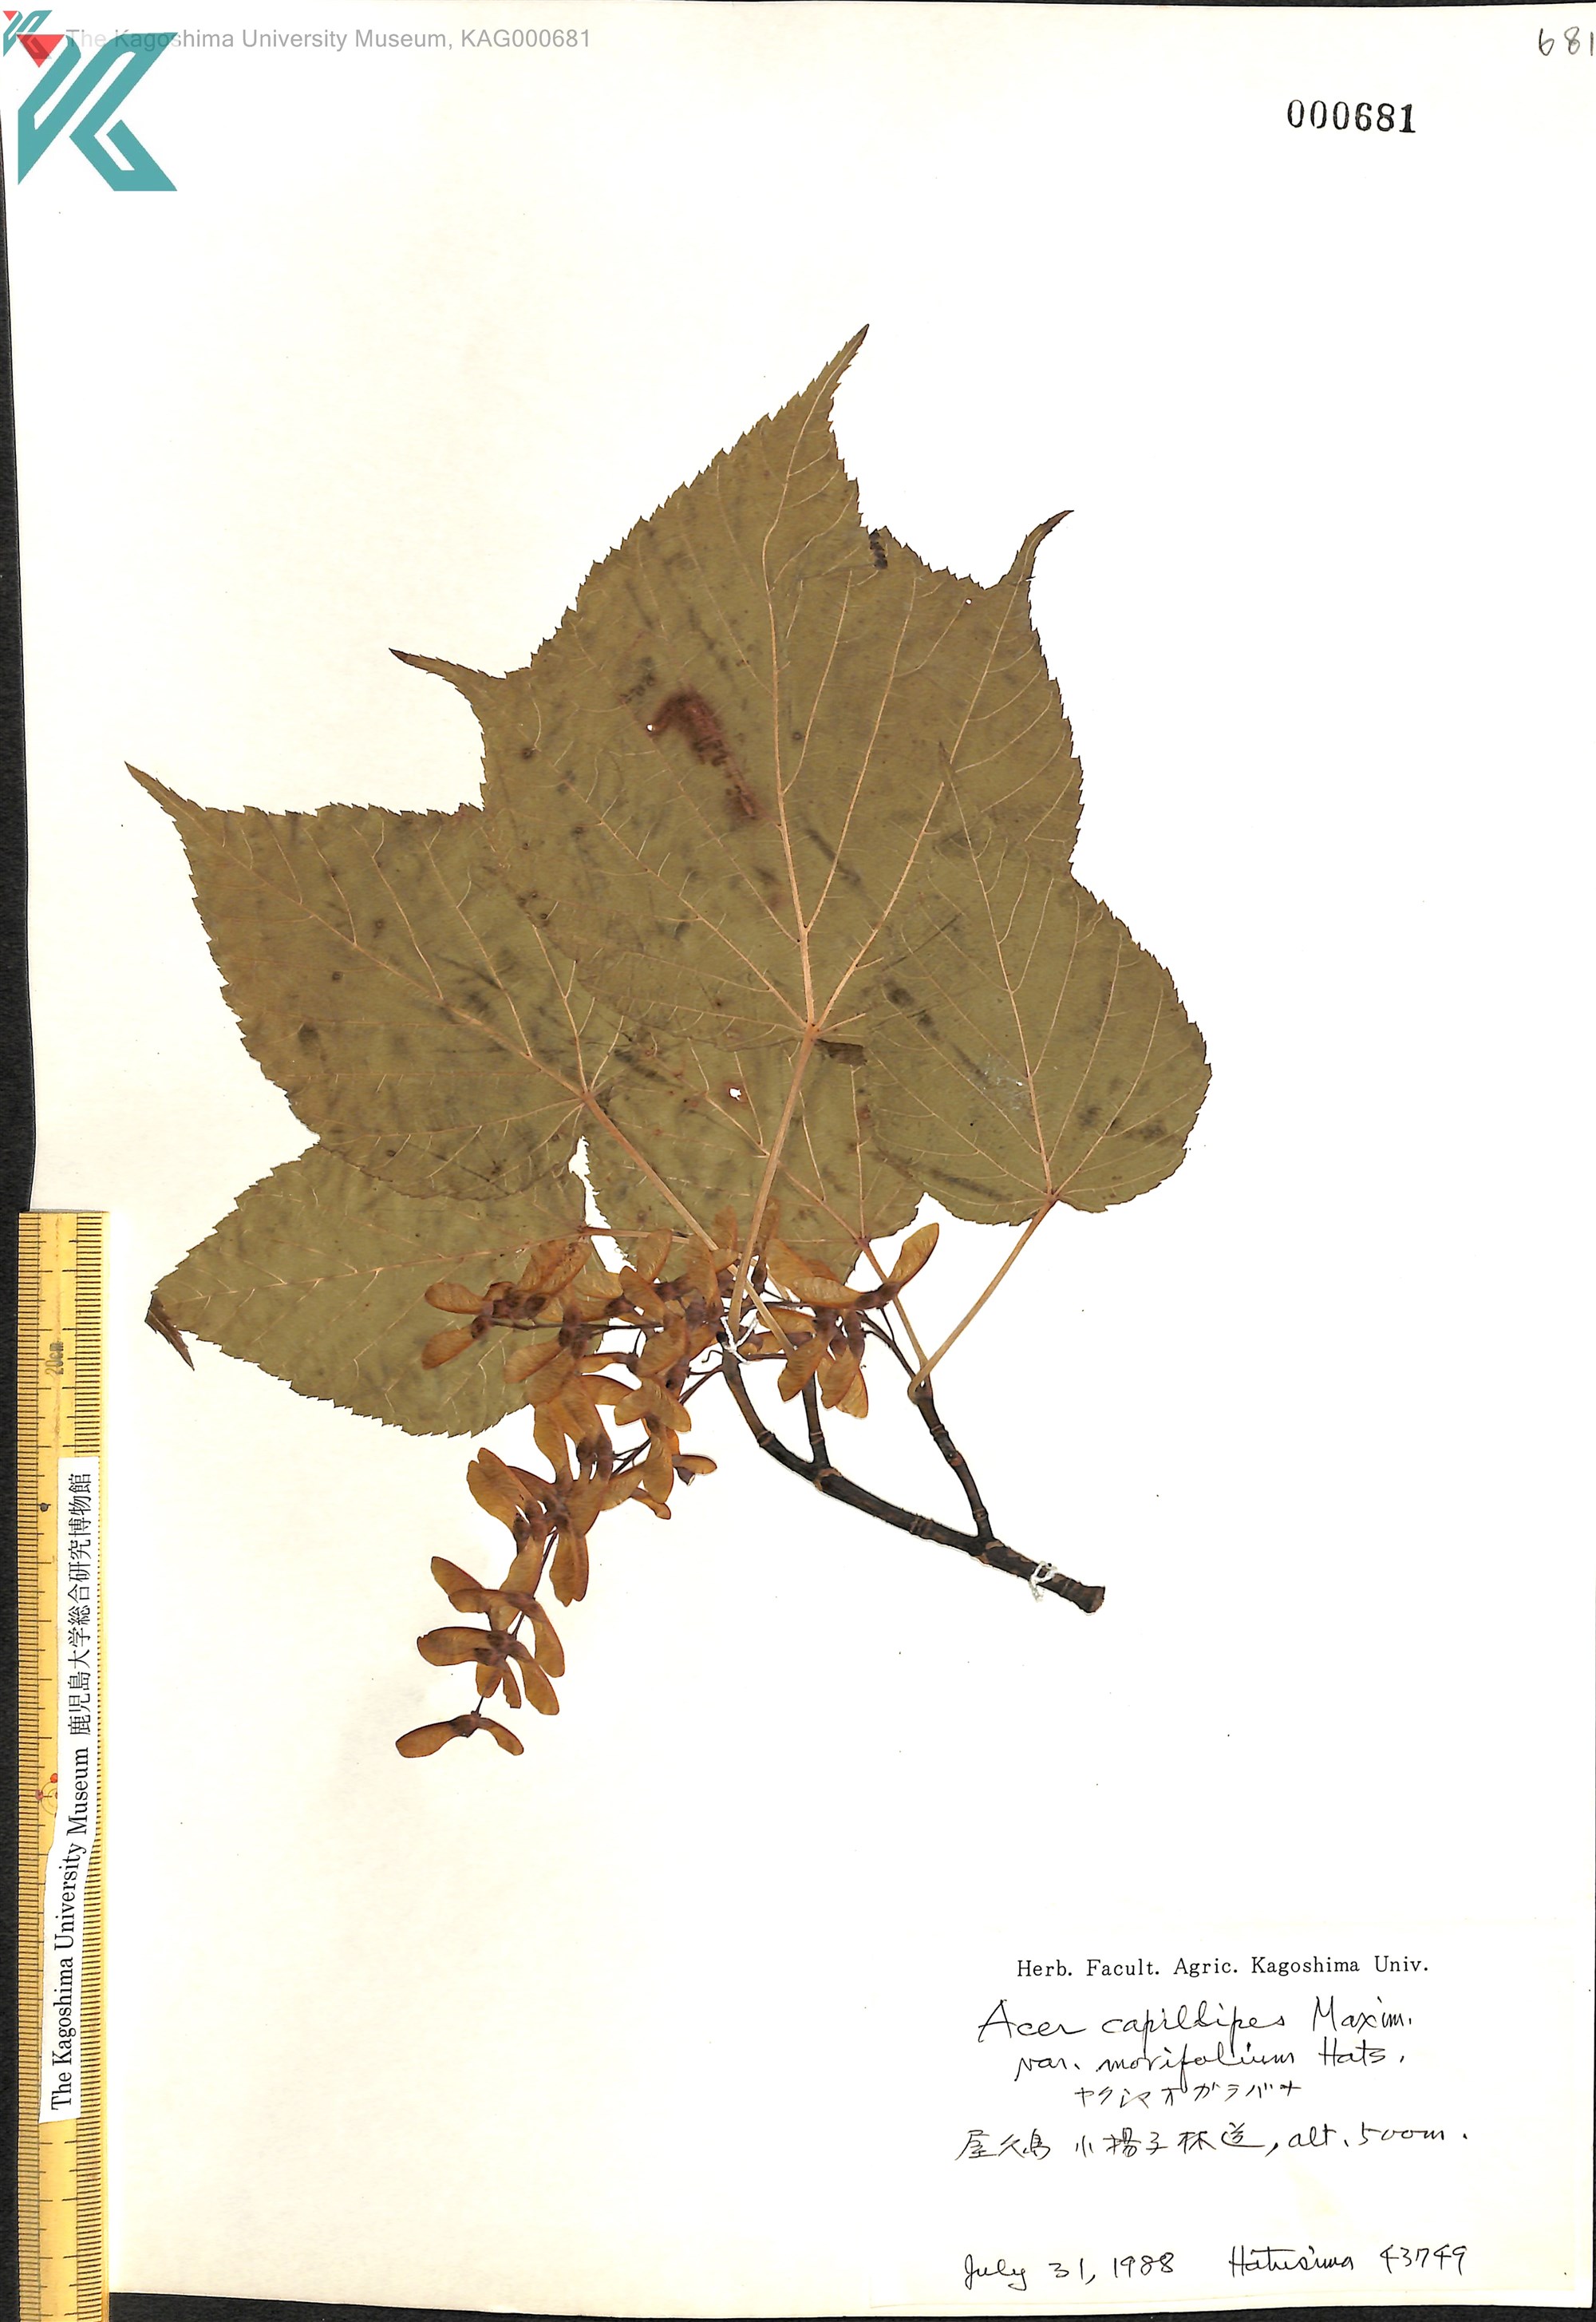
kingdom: Plantae
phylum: Tracheophyta
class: Magnoliopsida
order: Sapindales
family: Sapindaceae
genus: Acer
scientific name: Acer morifolium
